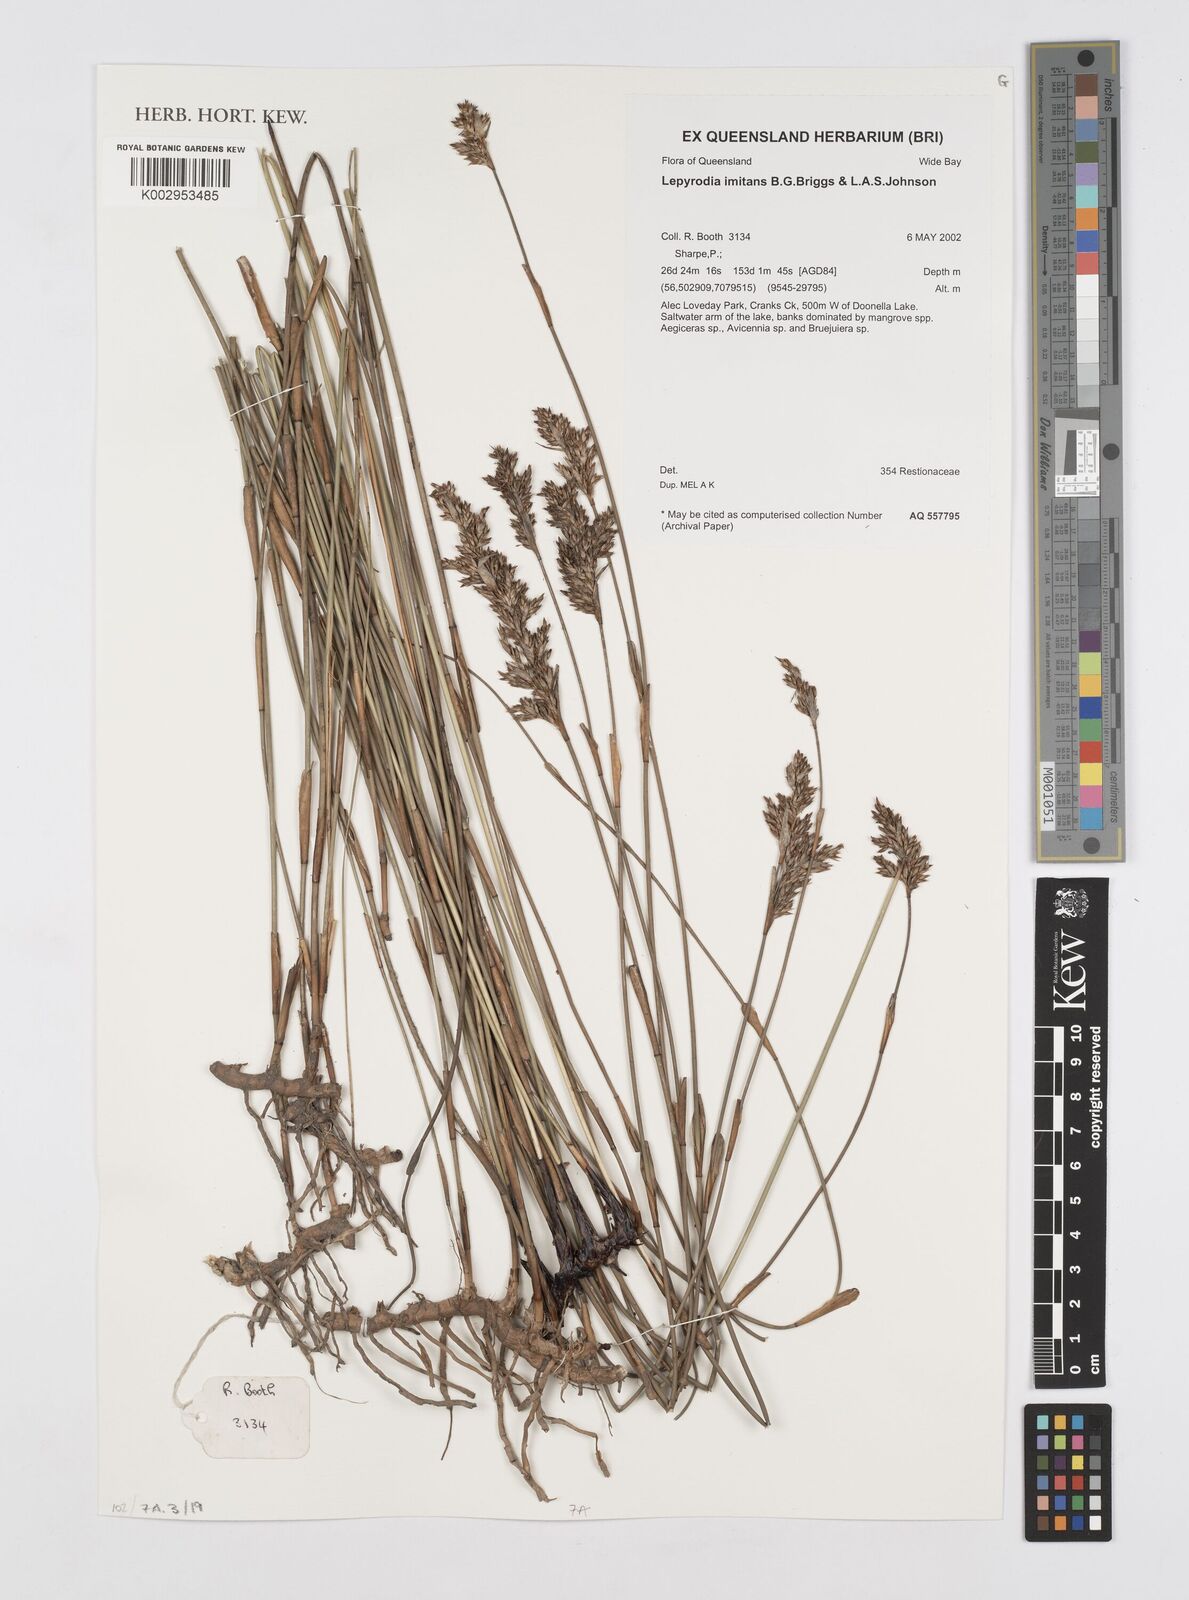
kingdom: Plantae
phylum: Tracheophyta
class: Liliopsida
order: Poales
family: Restionaceae
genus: Lepyrodia
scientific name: Lepyrodia imitans
